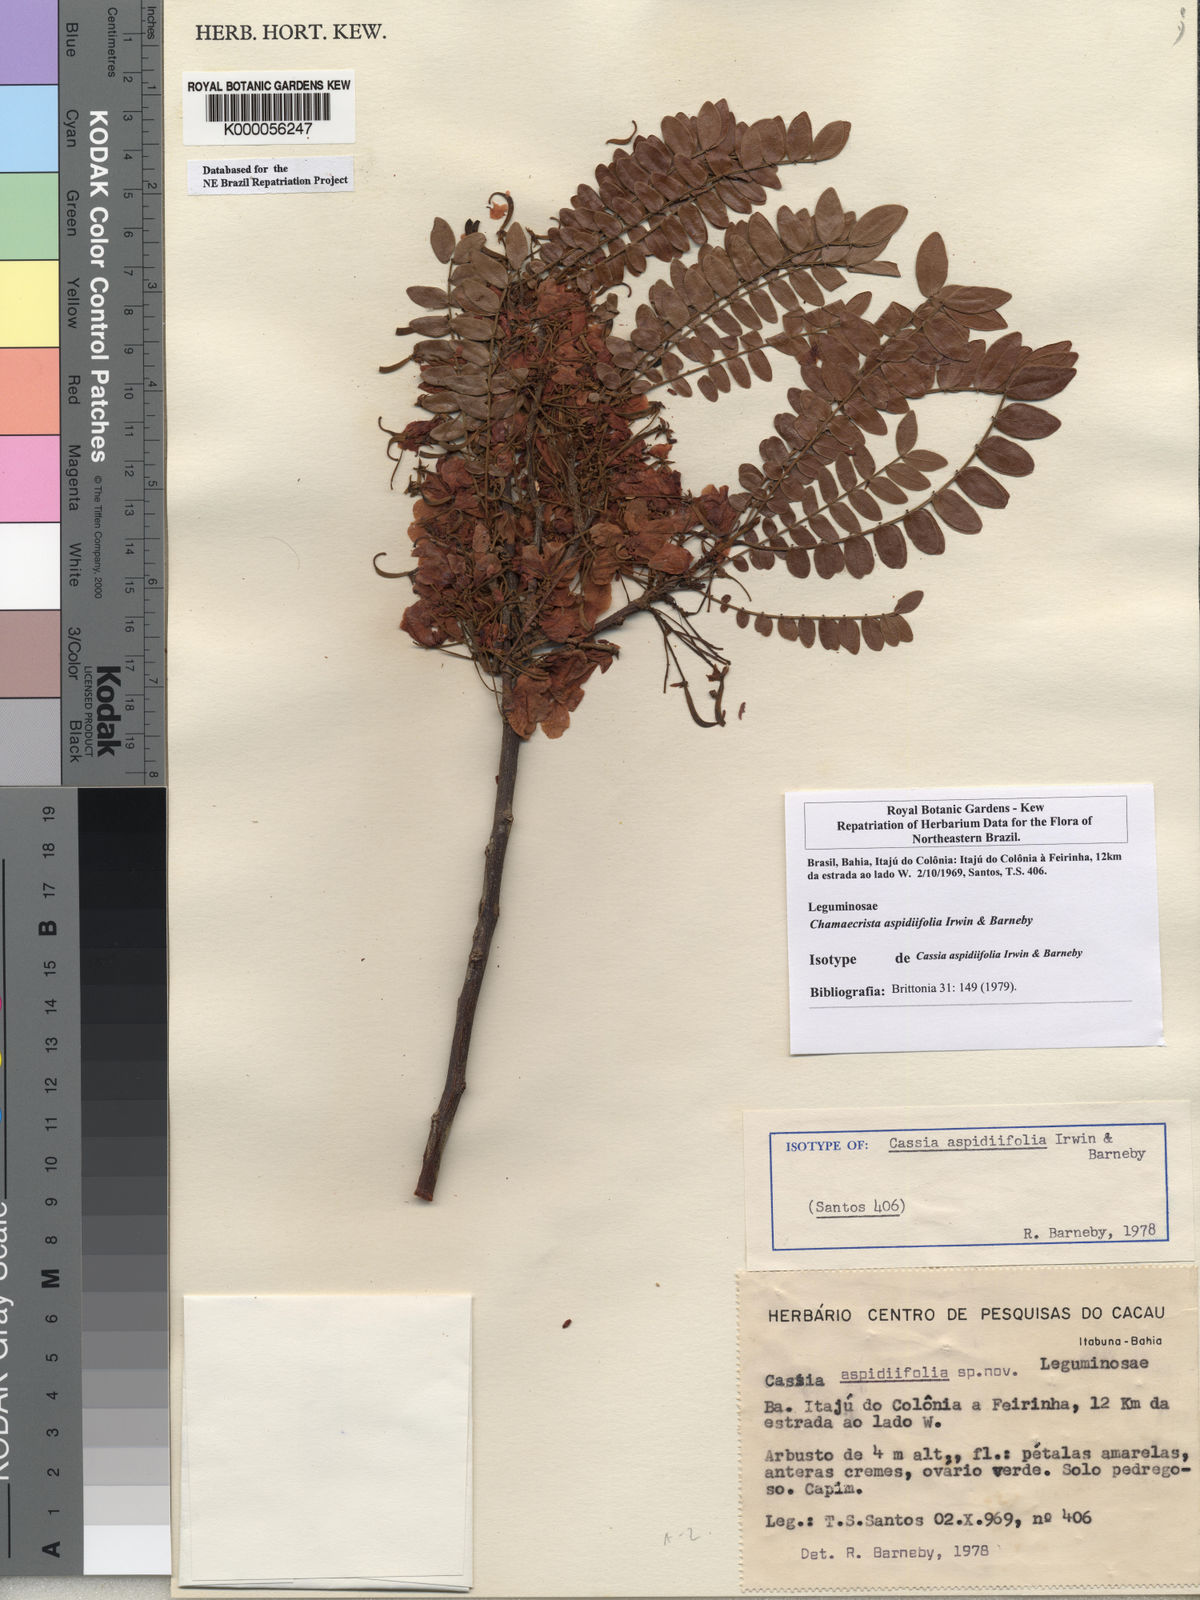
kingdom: Plantae
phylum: Tracheophyta
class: Magnoliopsida
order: Fabales
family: Fabaceae
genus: Chamaecrista
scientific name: Chamaecrista aspidiifolia
